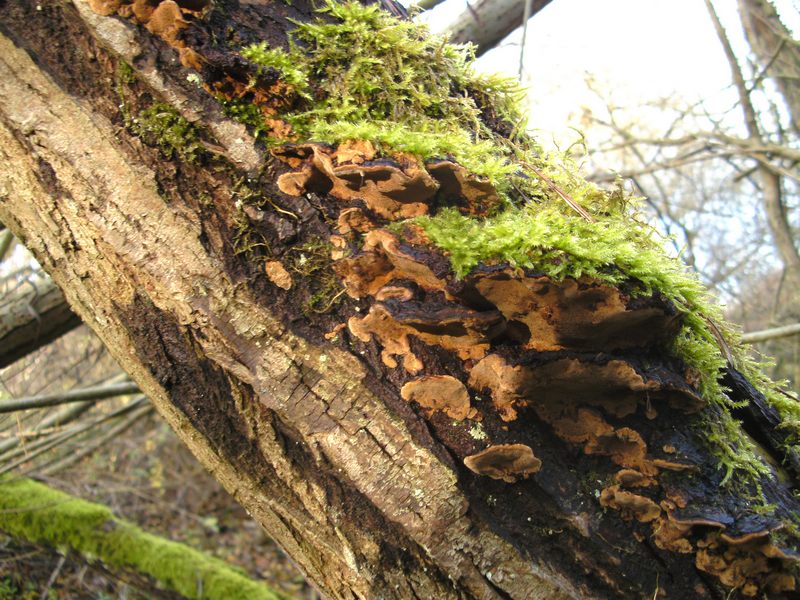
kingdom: Fungi
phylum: Basidiomycota
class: Agaricomycetes
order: Hymenochaetales
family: Hymenochaetaceae
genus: Phellinopsis
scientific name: Phellinopsis conchata
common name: pile-ildporesvamp
